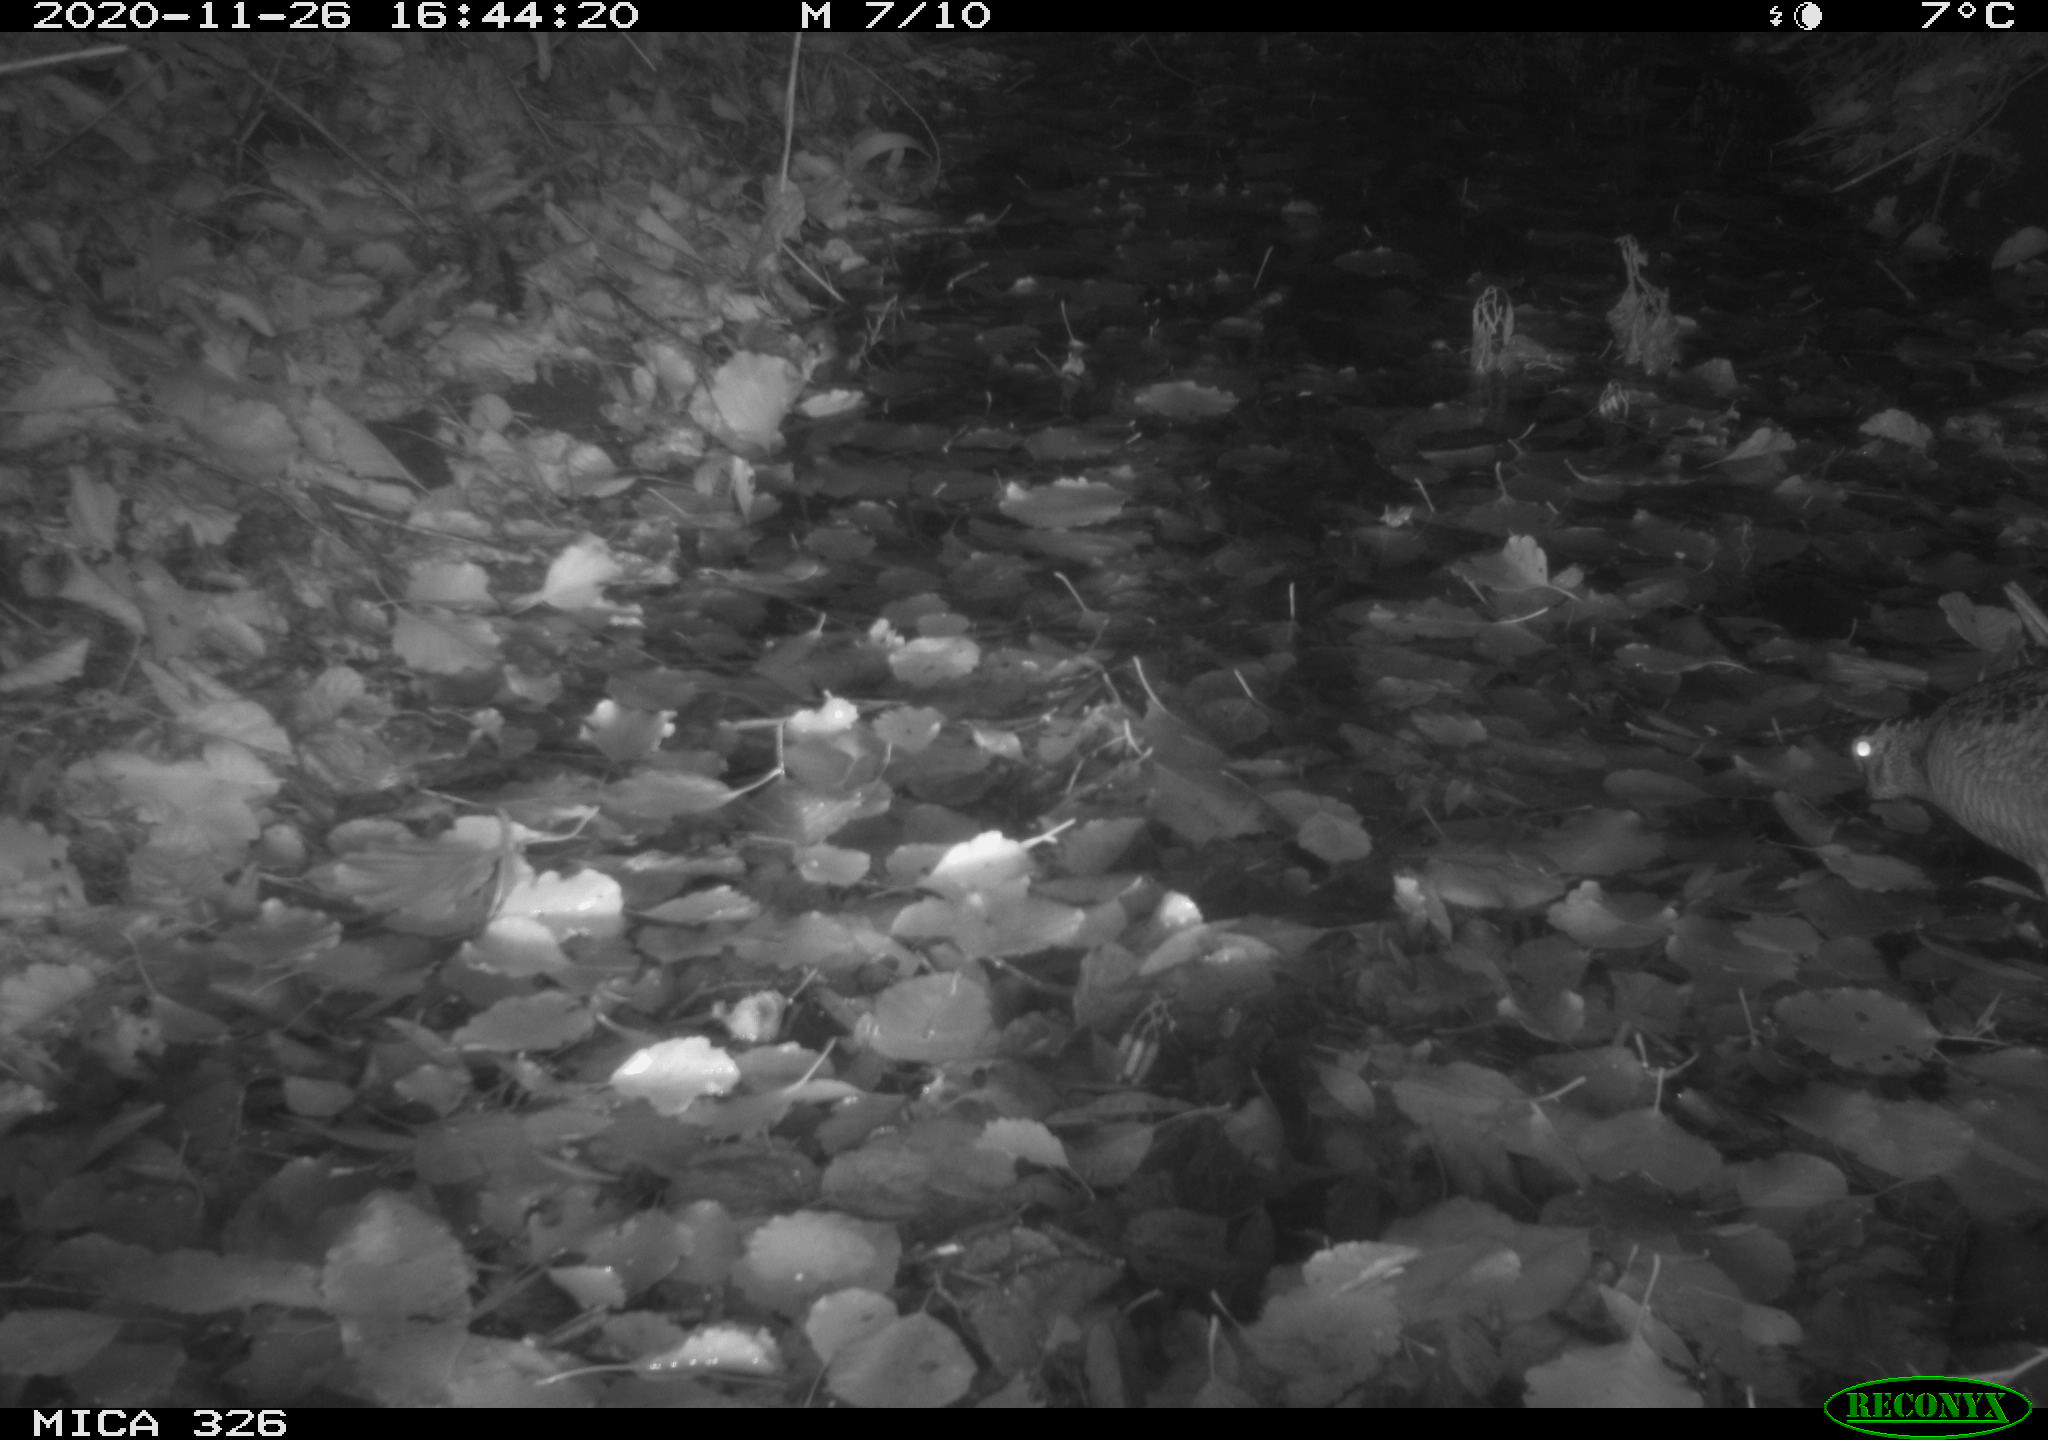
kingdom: Animalia
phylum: Chordata
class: Aves
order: Charadriiformes
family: Scolopacidae
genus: Scolopax
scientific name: Scolopax rusticola
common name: Eurasian woodcock
